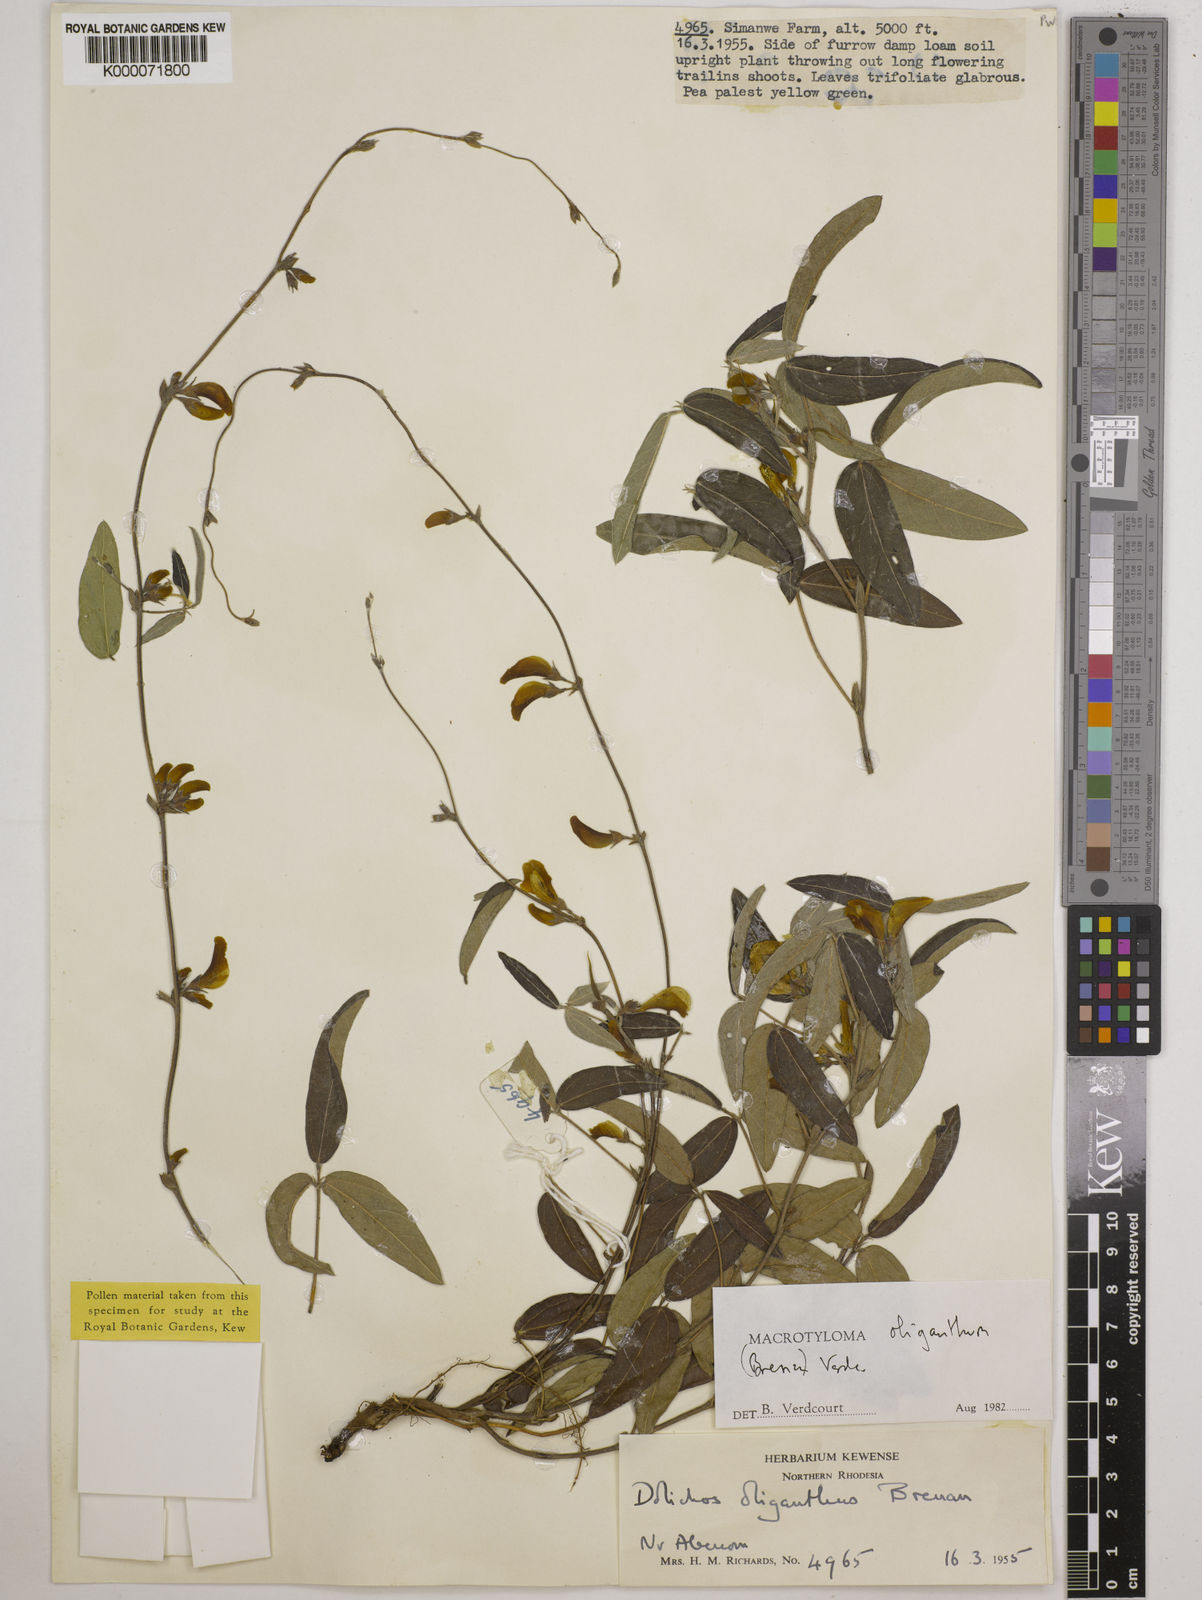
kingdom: Plantae
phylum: Tracheophyta
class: Magnoliopsida
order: Fabales
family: Fabaceae
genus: Macrotyloma
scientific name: Macrotyloma oliganthum
